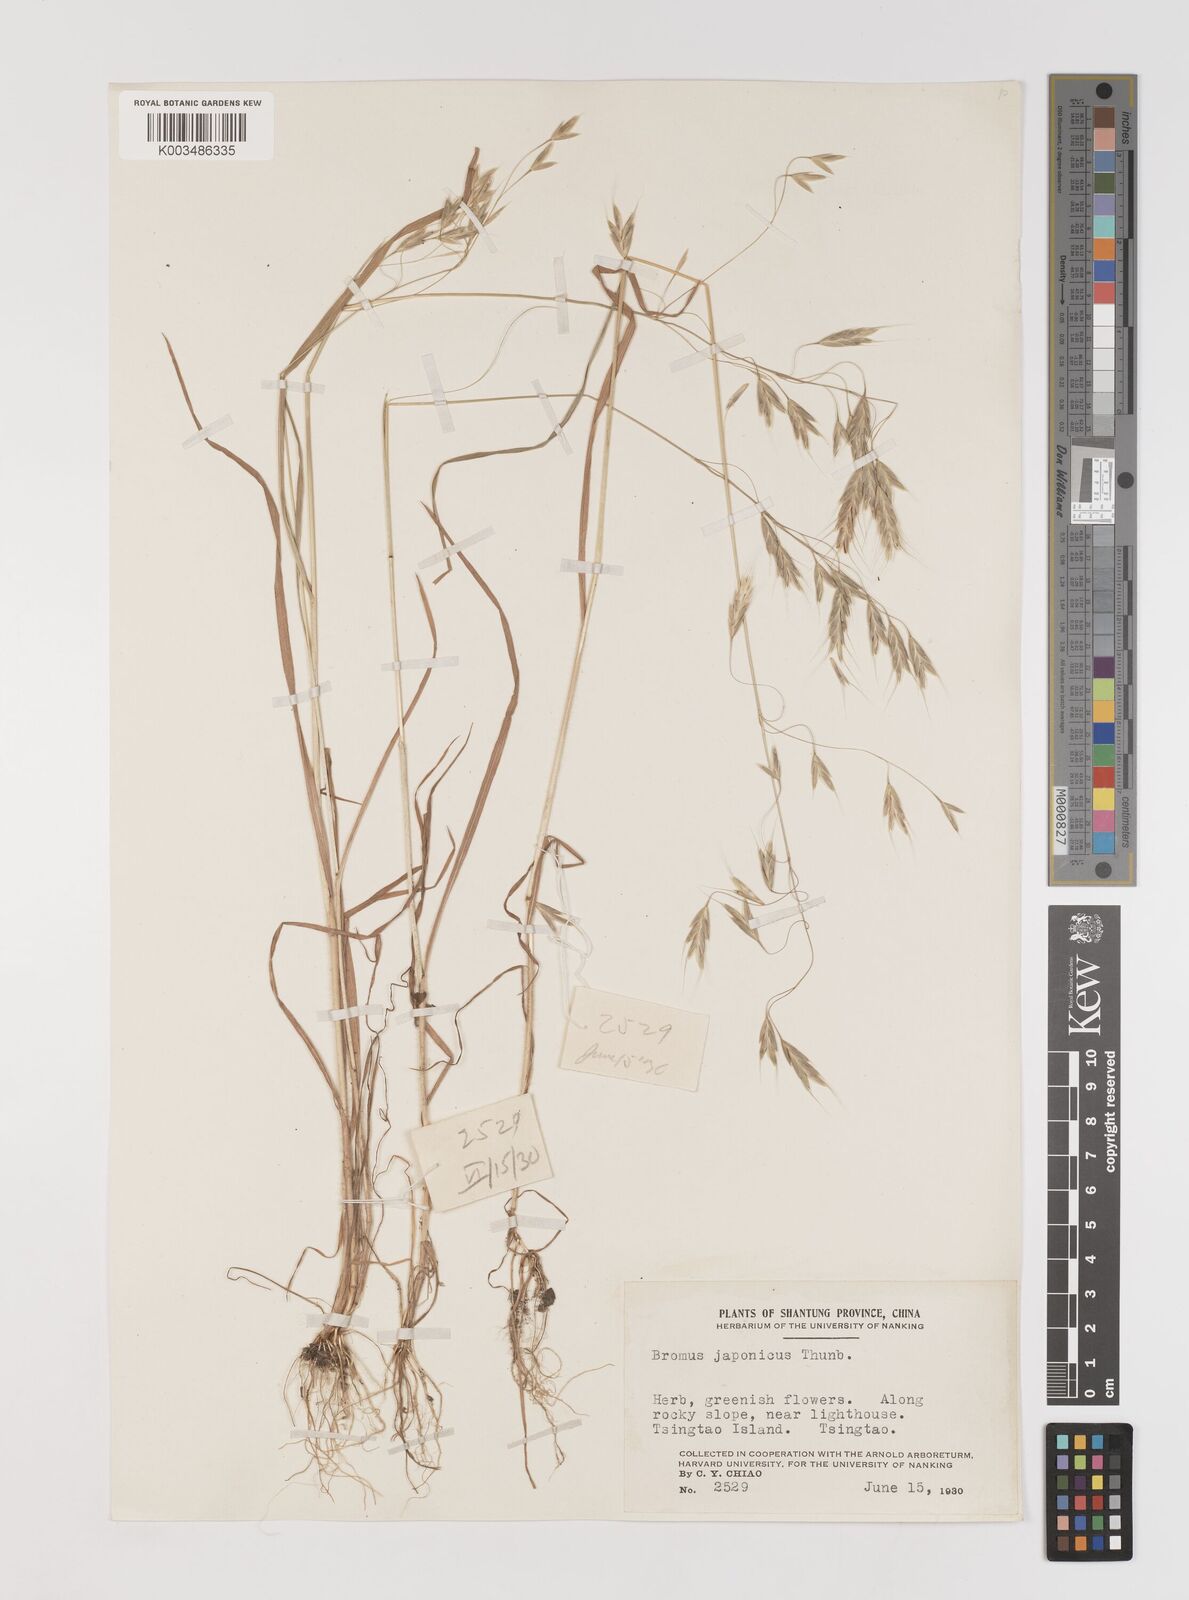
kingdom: Plantae
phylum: Tracheophyta
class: Liliopsida
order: Poales
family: Poaceae
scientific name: Poaceae
